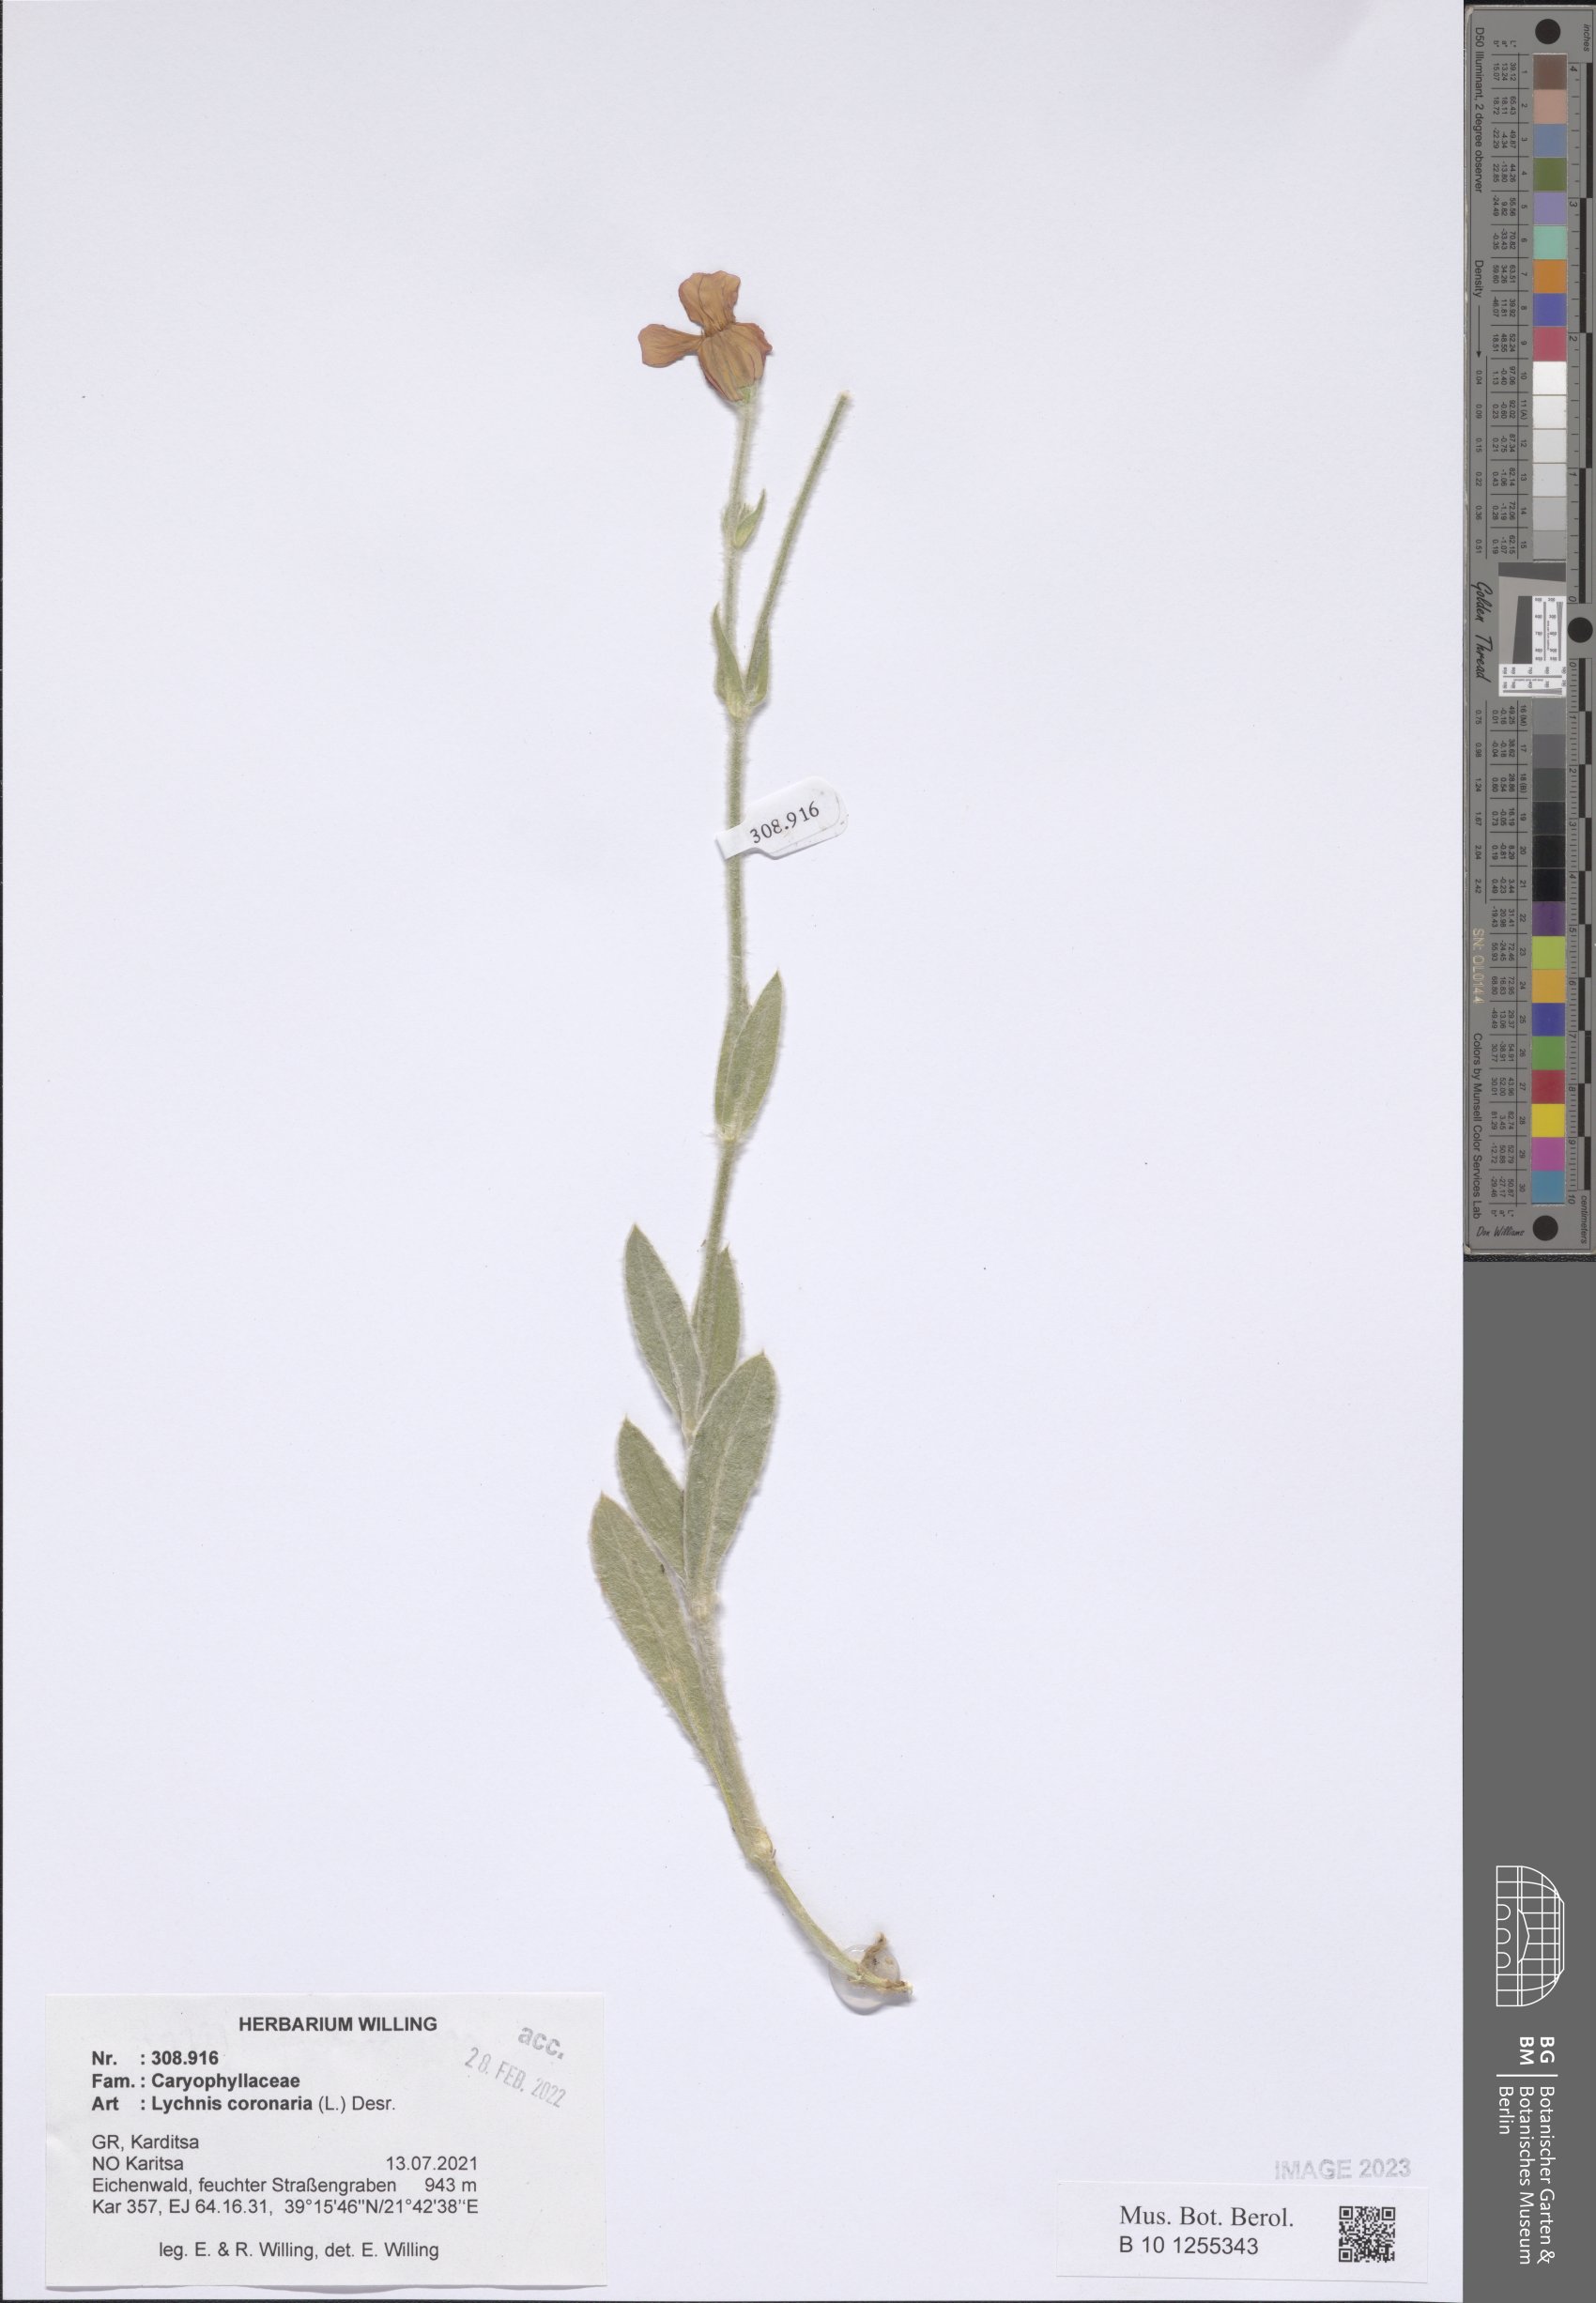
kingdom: Plantae
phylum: Tracheophyta
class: Magnoliopsida
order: Caryophyllales
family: Caryophyllaceae
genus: Silene
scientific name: Silene coronaria
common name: Rose campion
